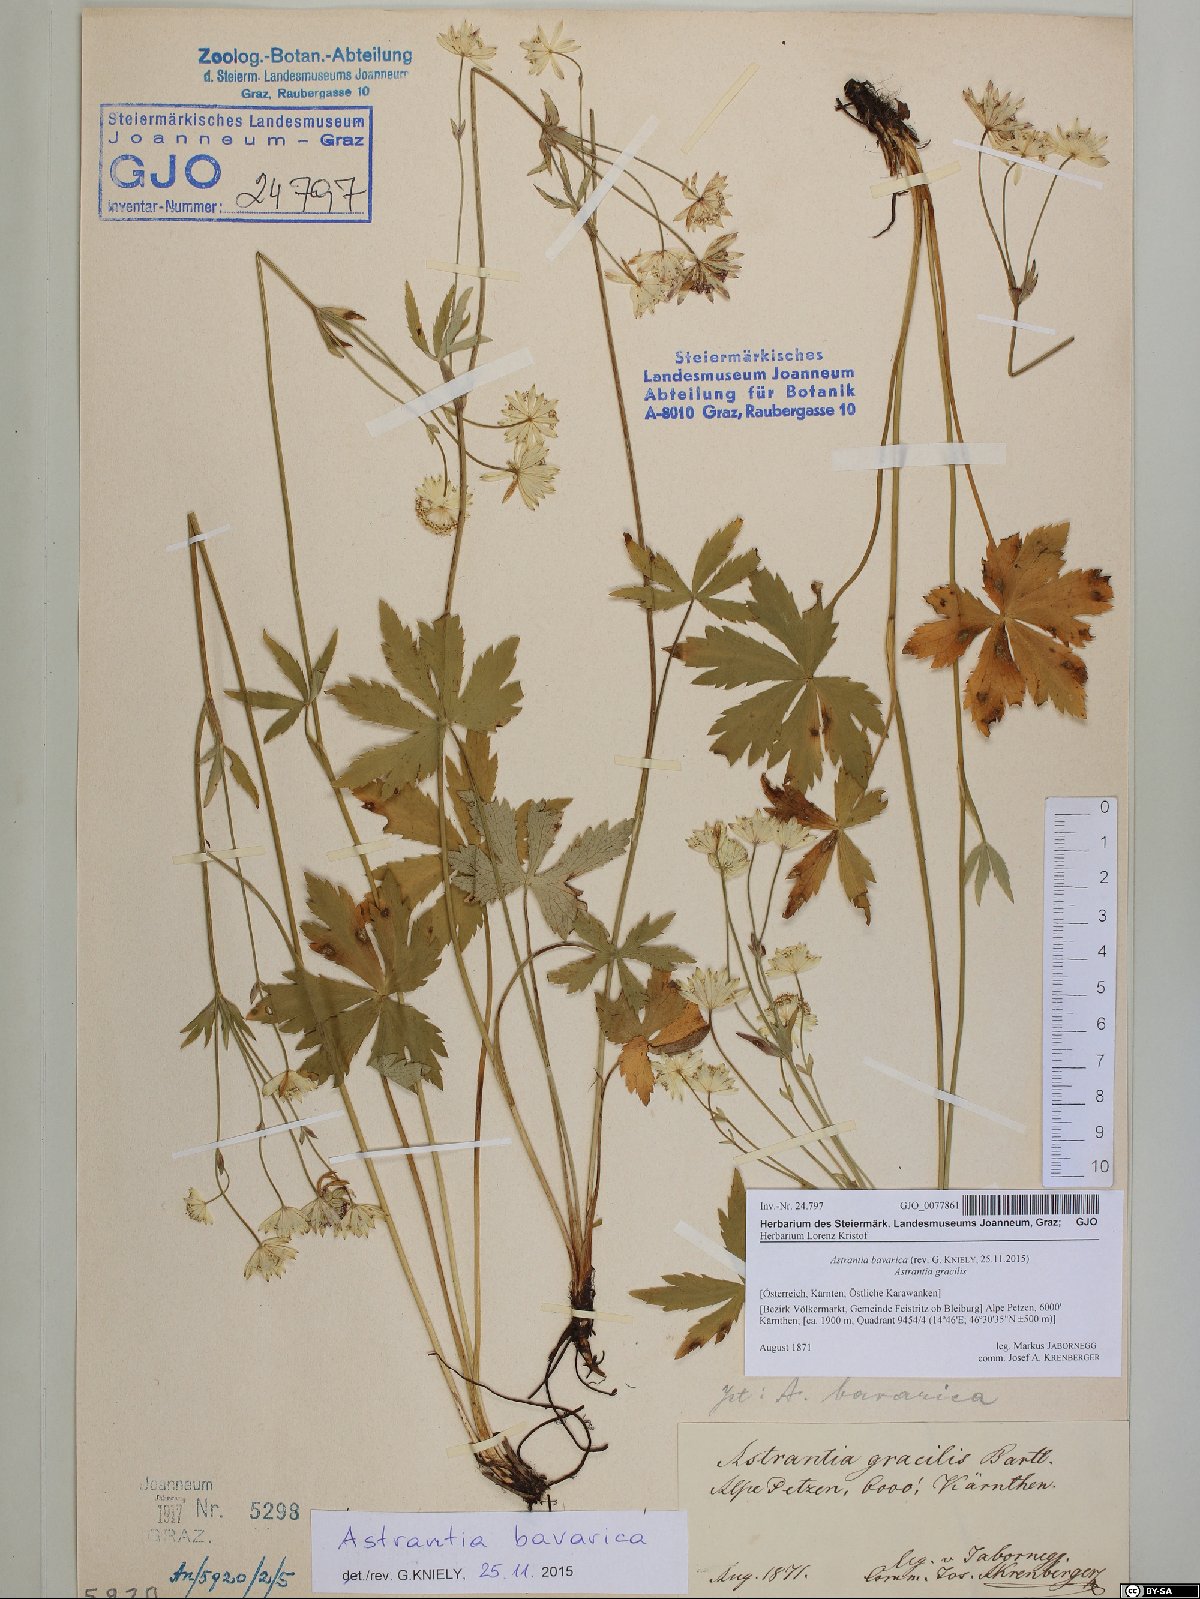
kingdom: Plantae
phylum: Tracheophyta
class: Magnoliopsida
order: Apiales
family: Apiaceae
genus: Astrantia
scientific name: Astrantia bavarica
